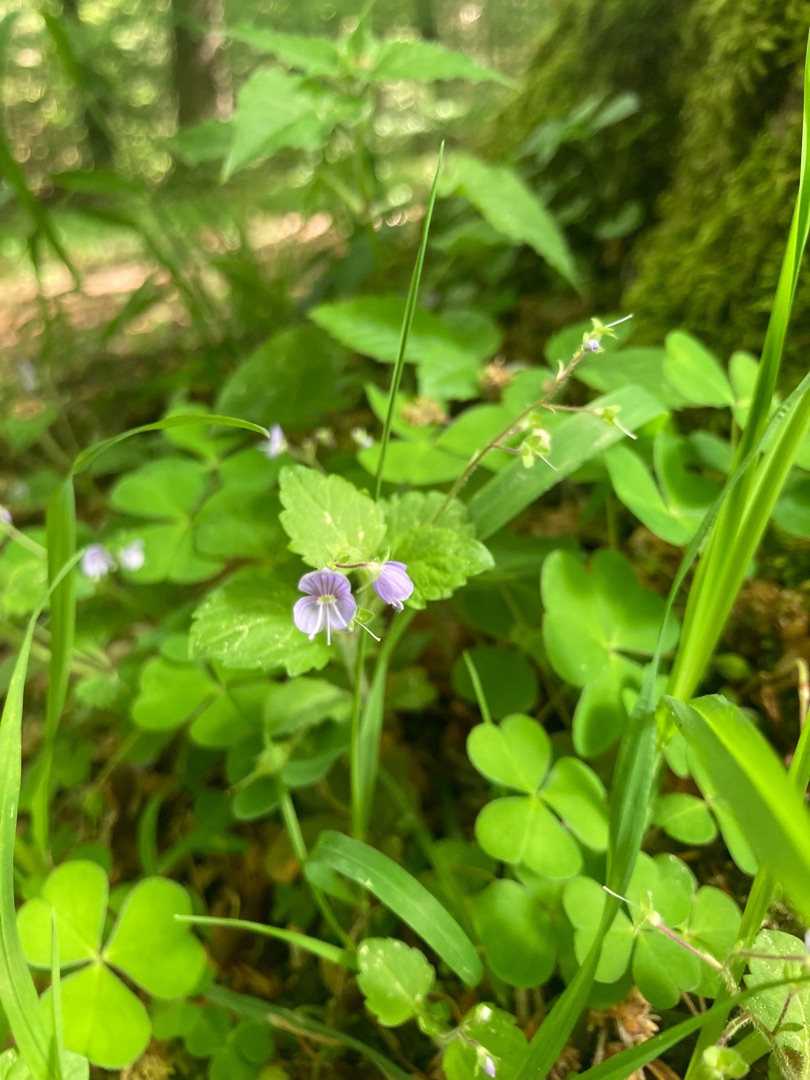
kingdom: Plantae
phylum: Tracheophyta
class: Magnoliopsida
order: Lamiales
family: Plantaginaceae
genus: Veronica
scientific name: Veronica montana
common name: Bjerg-ærenpris
